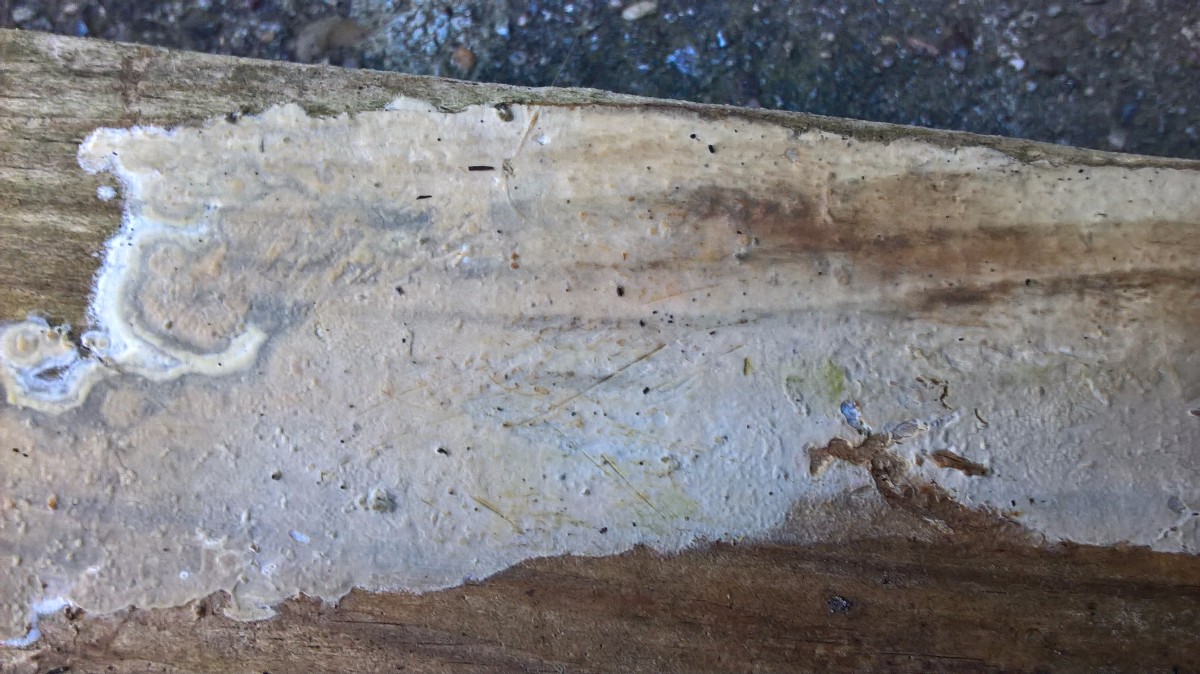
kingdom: Fungi
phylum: Basidiomycota
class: Agaricomycetes
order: Agaricales
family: Radulomycetaceae
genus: Radulomyces
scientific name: Radulomyces confluens
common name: glat naftalinskind
